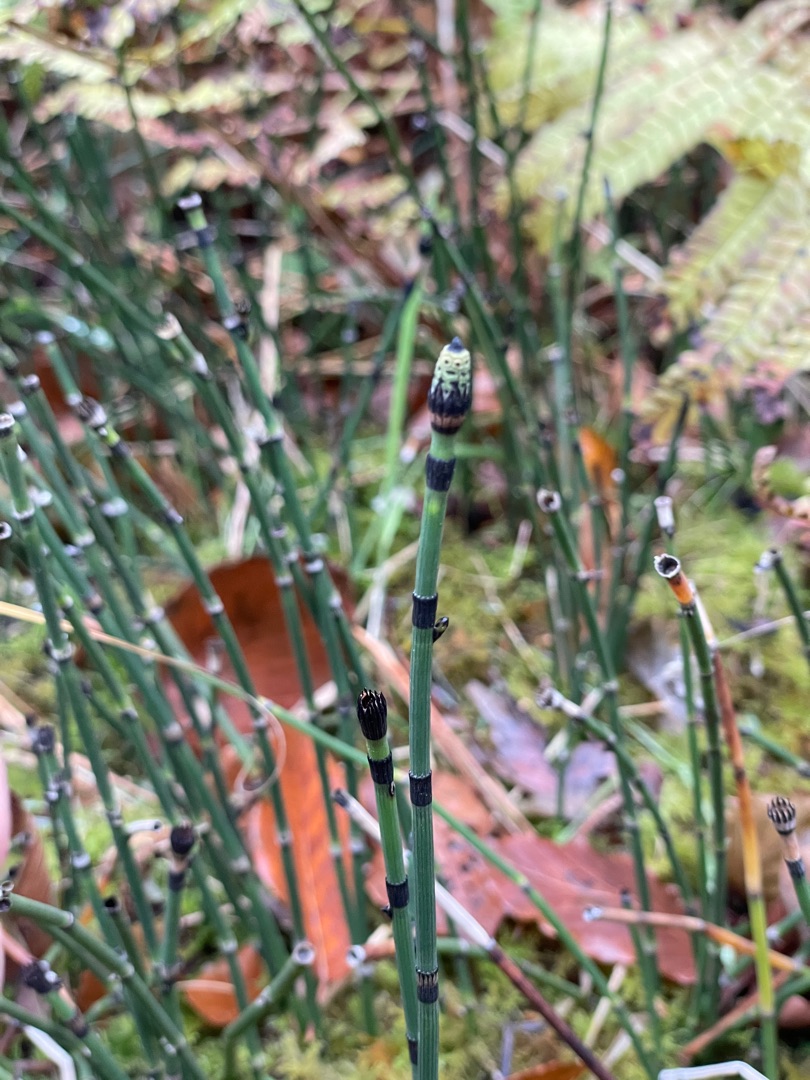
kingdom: Plantae
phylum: Tracheophyta
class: Polypodiopsida
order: Equisetales
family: Equisetaceae
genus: Equisetum
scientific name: Equisetum hyemale
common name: Skavgræs
